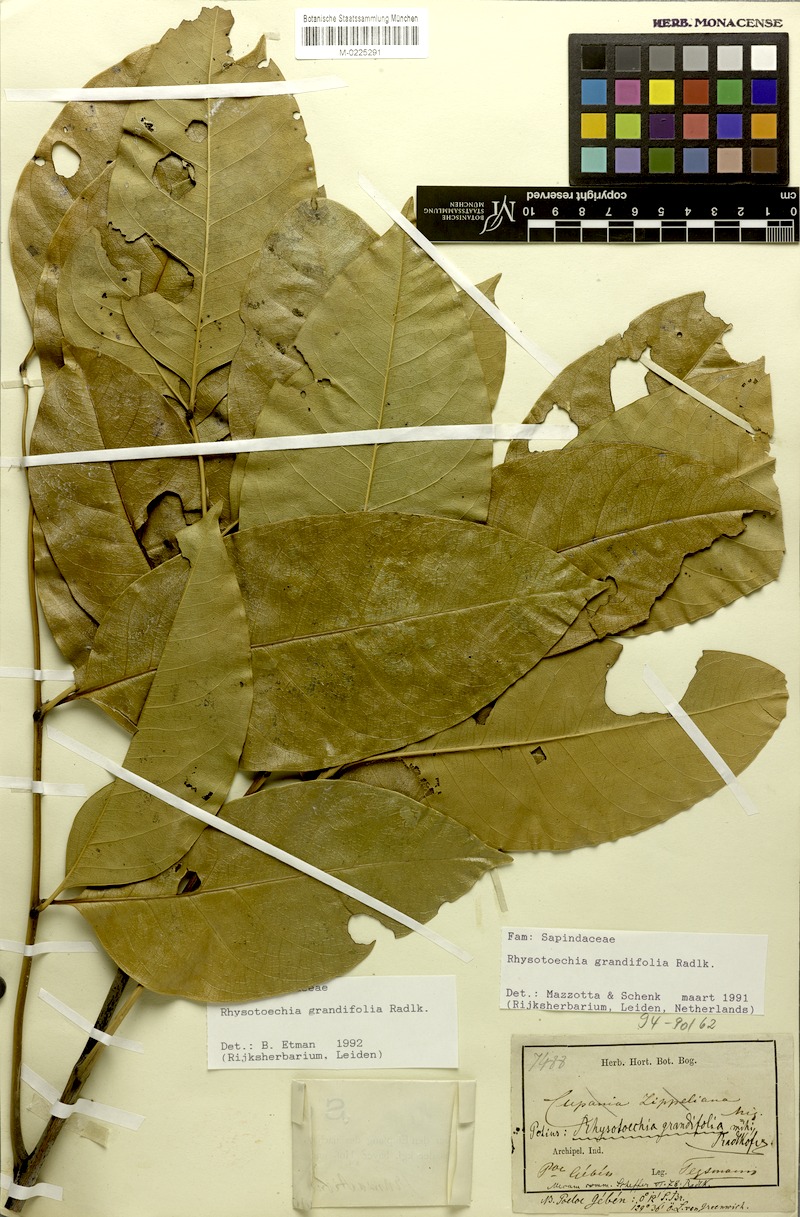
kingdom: Plantae
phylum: Tracheophyta
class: Magnoliopsida
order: Sapindales
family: Sapindaceae
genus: Rhysotoechia
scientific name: Rhysotoechia grandifolia
